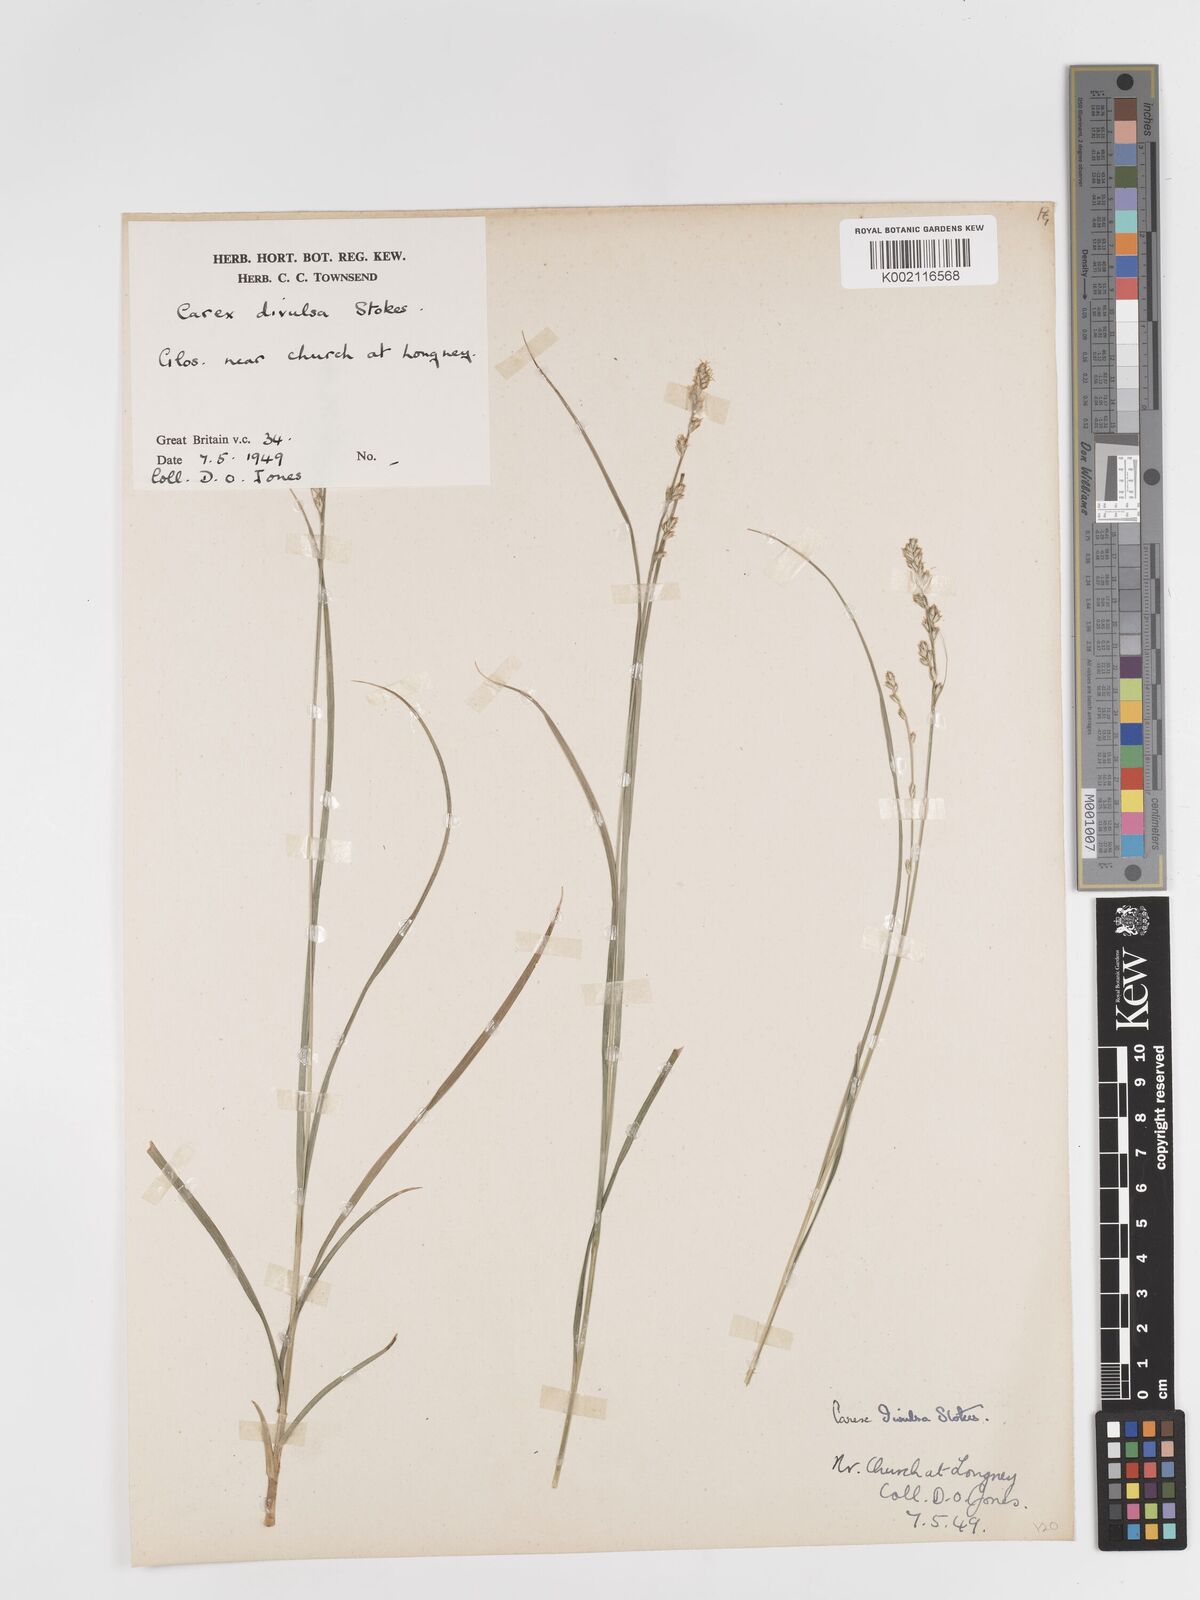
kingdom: Plantae
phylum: Tracheophyta
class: Liliopsida
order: Poales
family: Cyperaceae
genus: Carex
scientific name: Carex divulsa
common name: Grassland sedge
